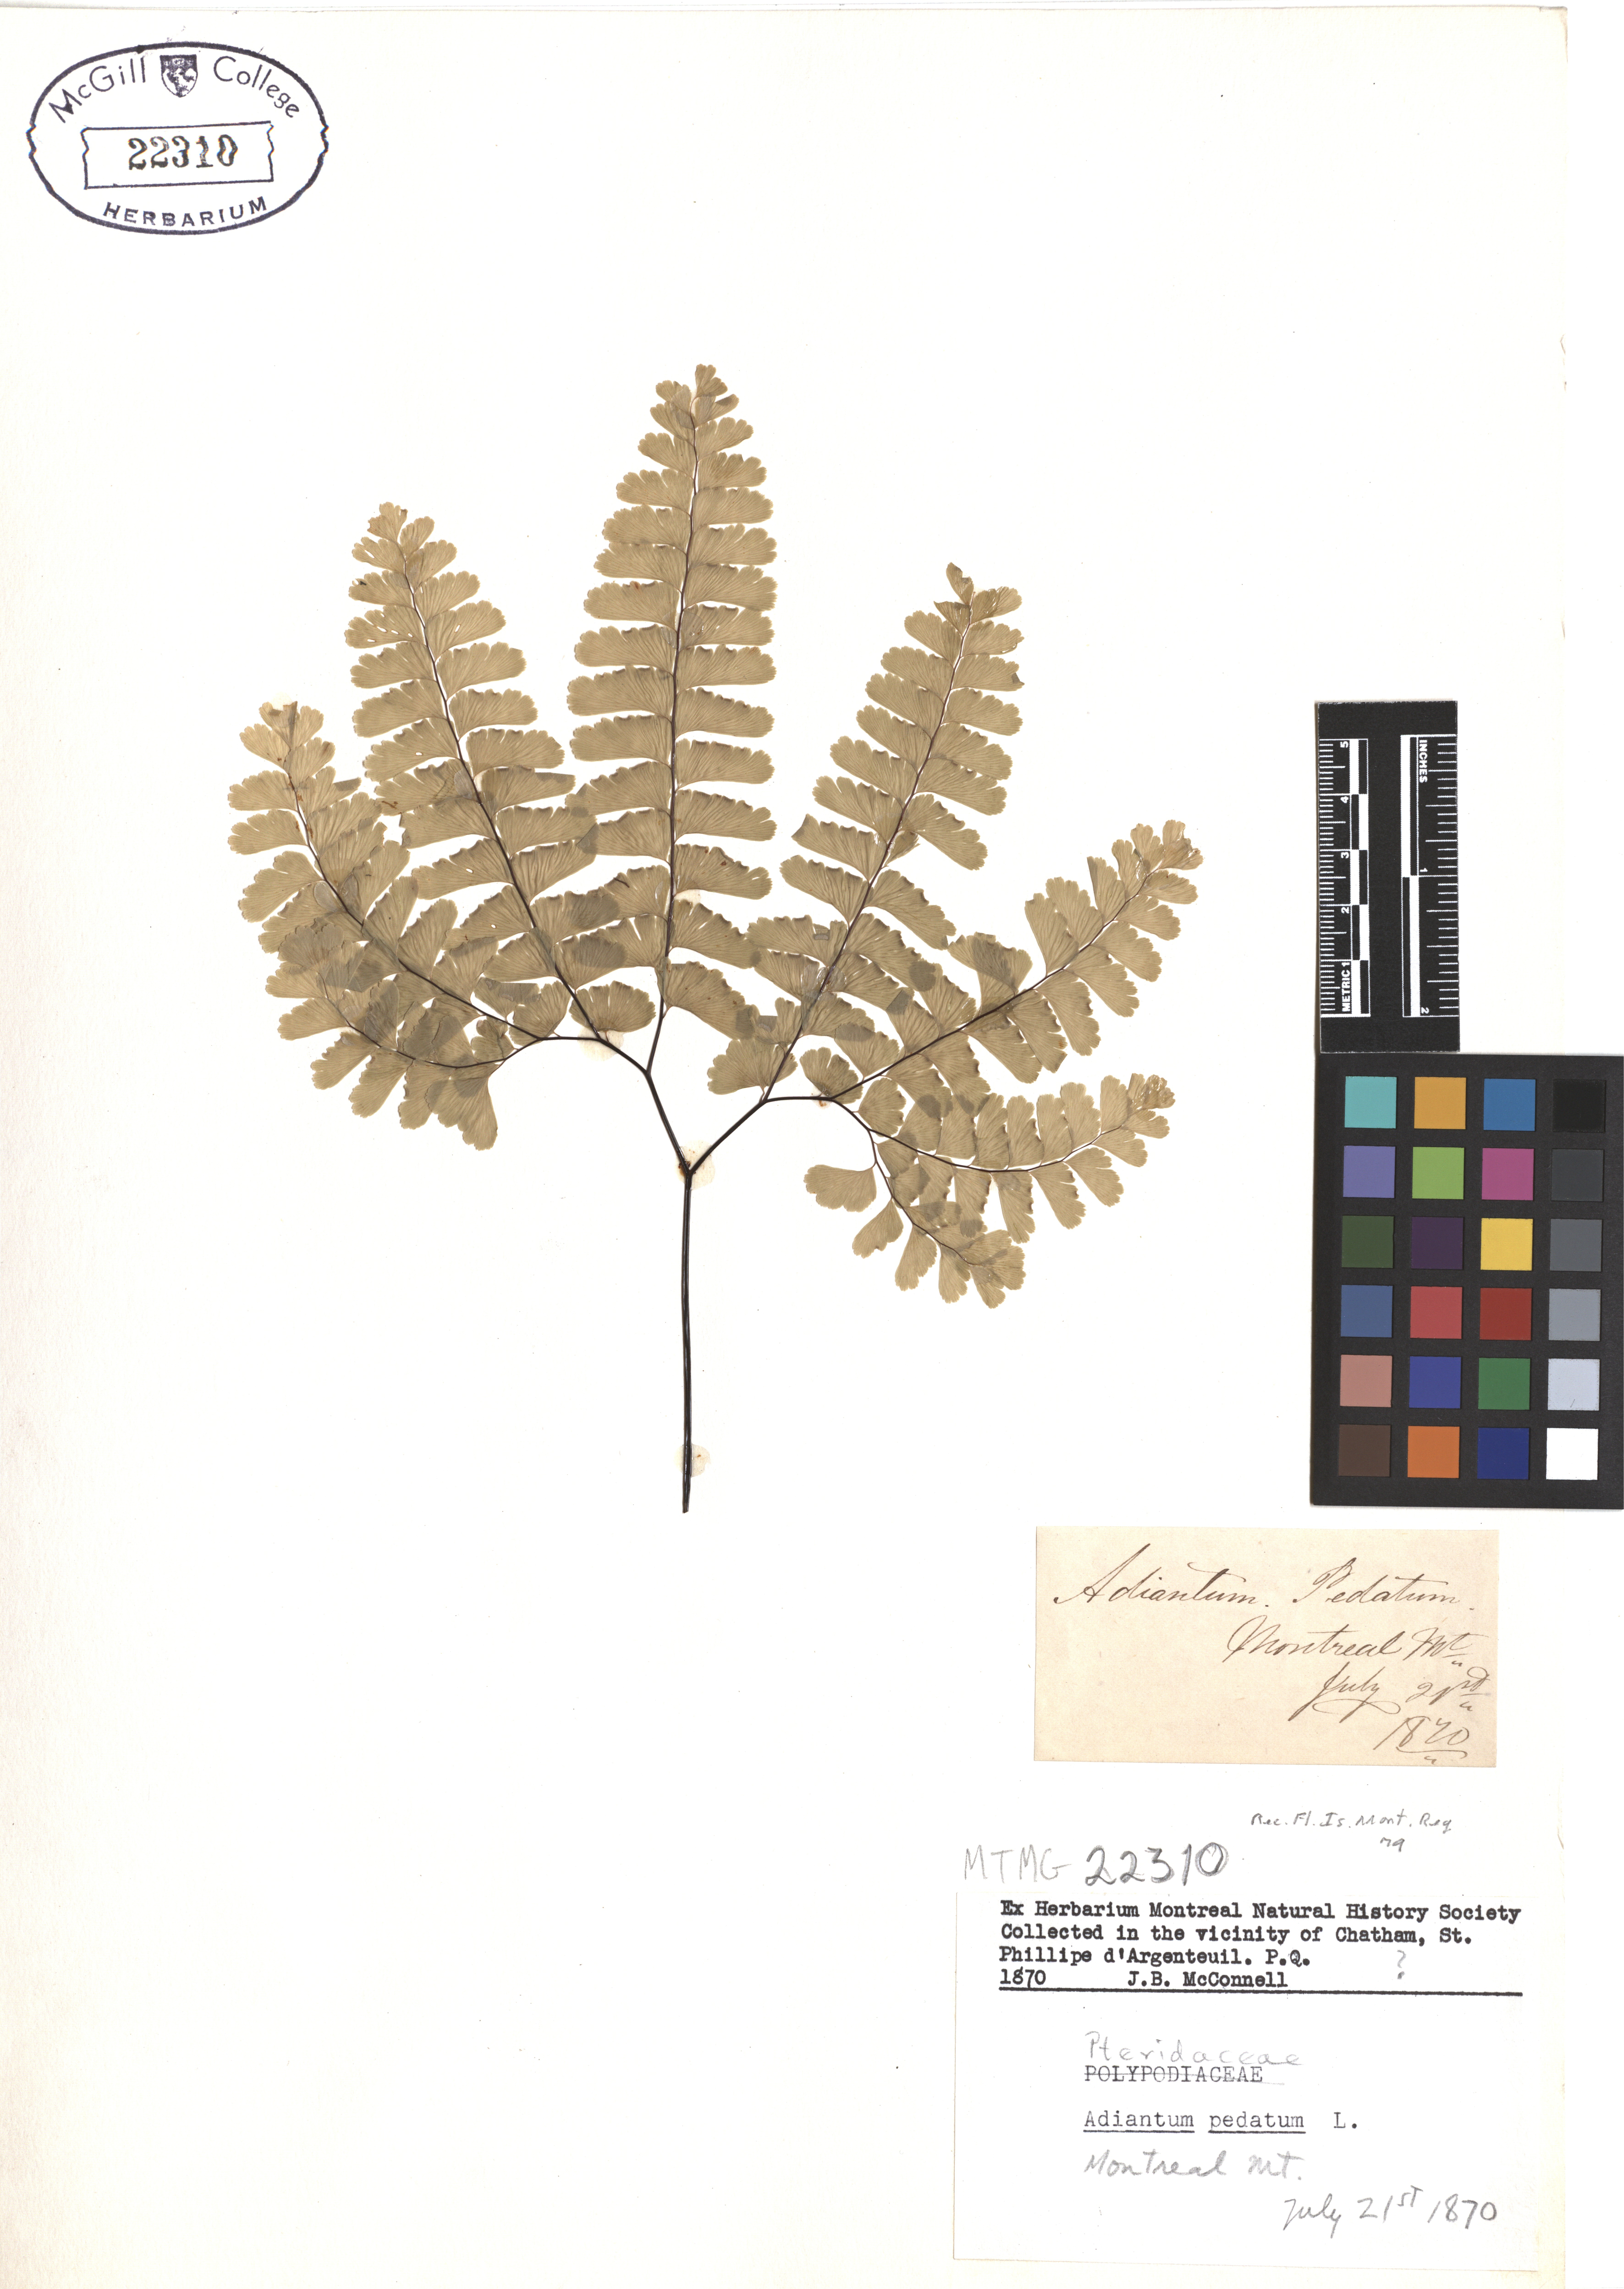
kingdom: Plantae
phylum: Tracheophyta
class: Polypodiopsida
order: Polypodiales
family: Pteridaceae
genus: Adiantum
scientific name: Adiantum pedatum
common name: Five-finger fern
